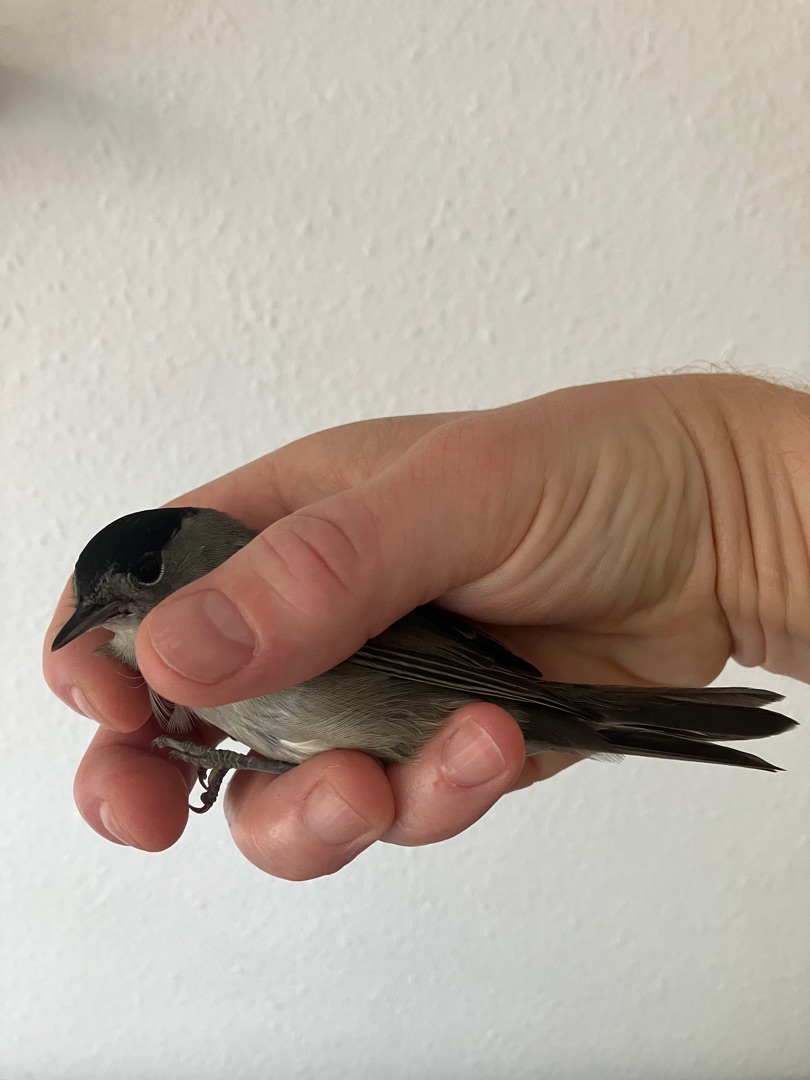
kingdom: Animalia
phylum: Chordata
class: Aves
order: Passeriformes
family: Sylviidae
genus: Sylvia
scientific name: Sylvia atricapilla
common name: Munk
